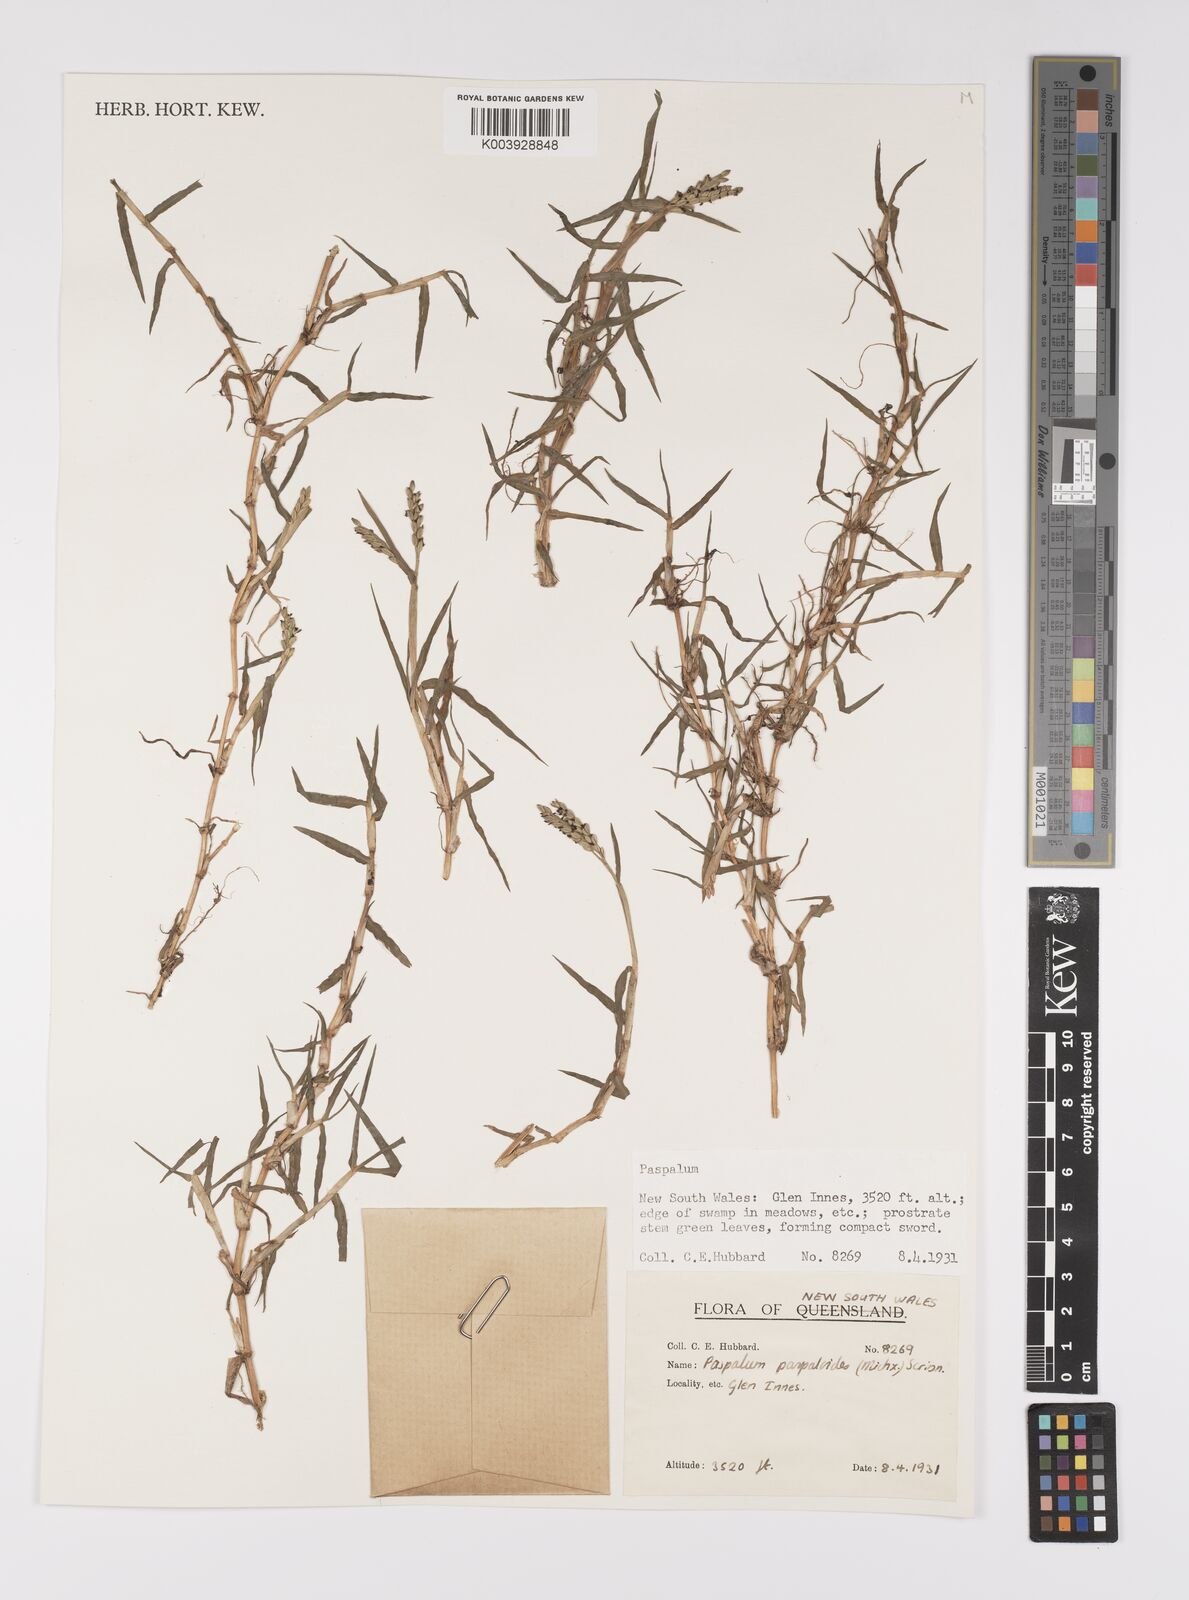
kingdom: Plantae
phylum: Tracheophyta
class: Liliopsida
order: Poales
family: Poaceae
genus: Paspalum
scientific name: Paspalum distichum
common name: Knotgrass
